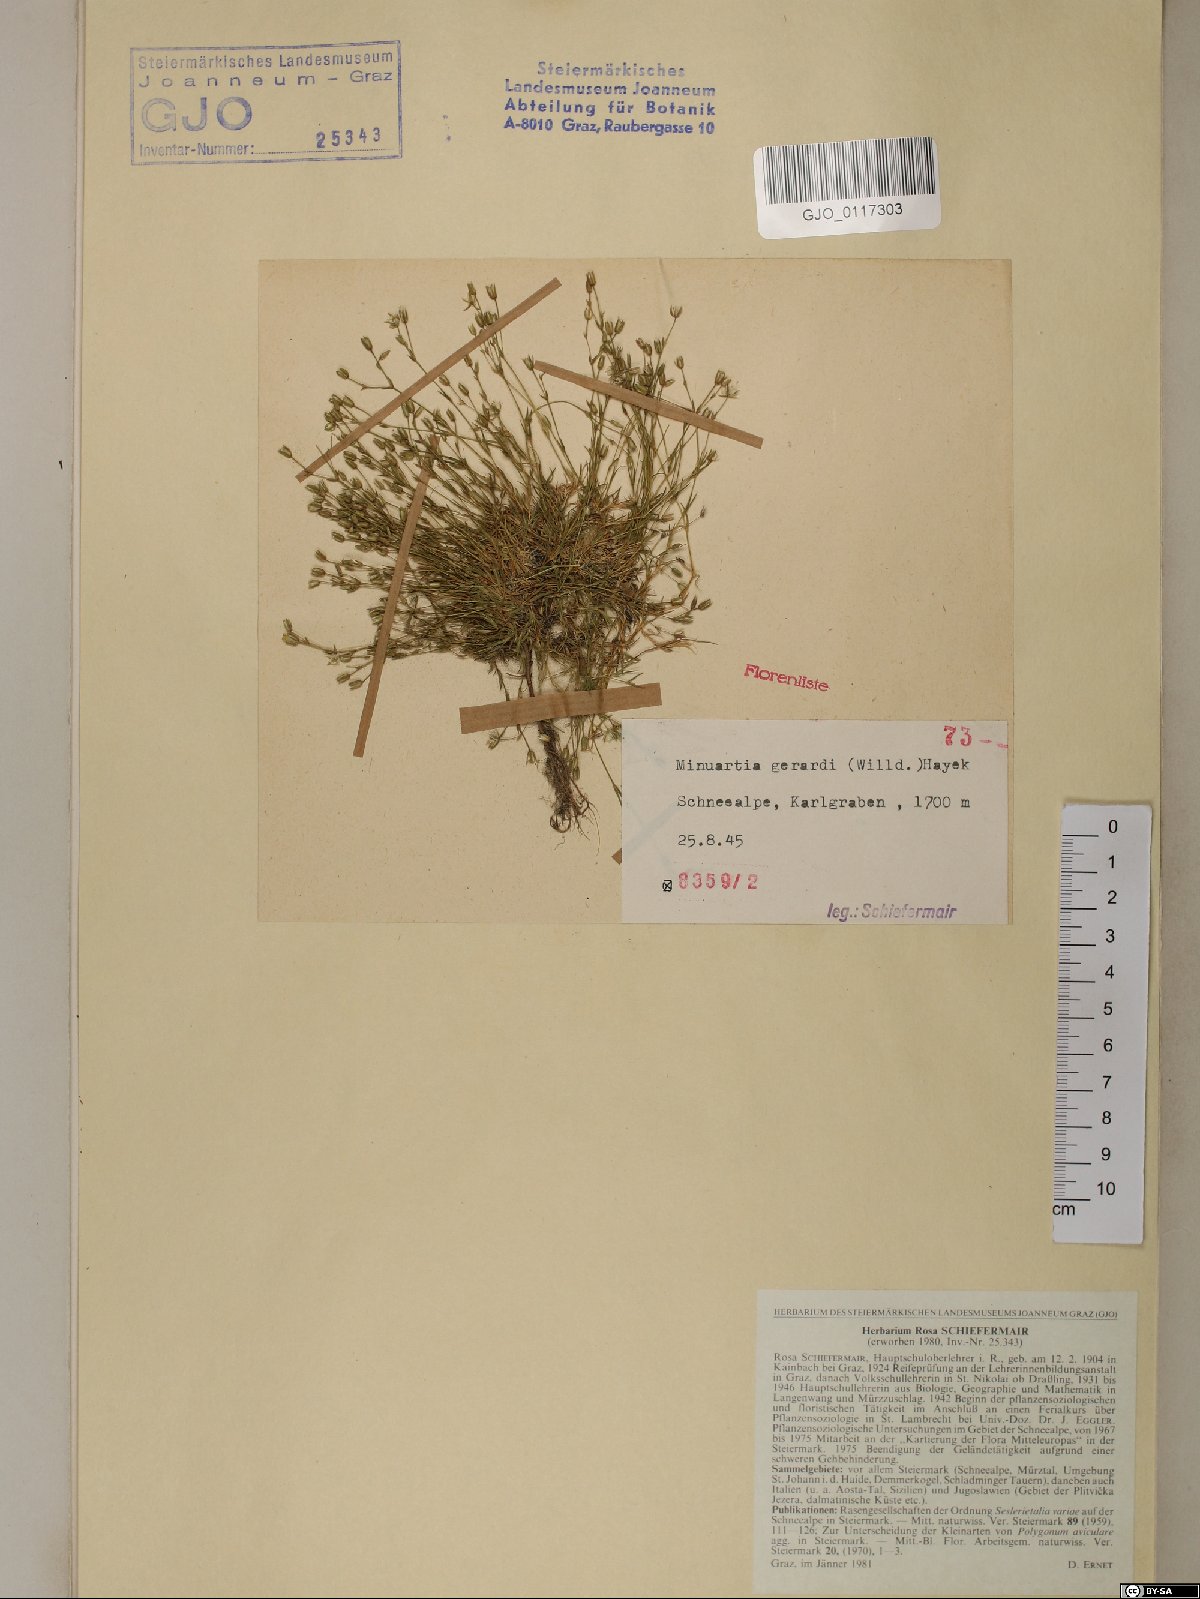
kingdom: Plantae
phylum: Tracheophyta
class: Magnoliopsida
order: Caryophyllales
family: Caryophyllaceae
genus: Sabulina
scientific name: Sabulina verna
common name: Spring sandwort
